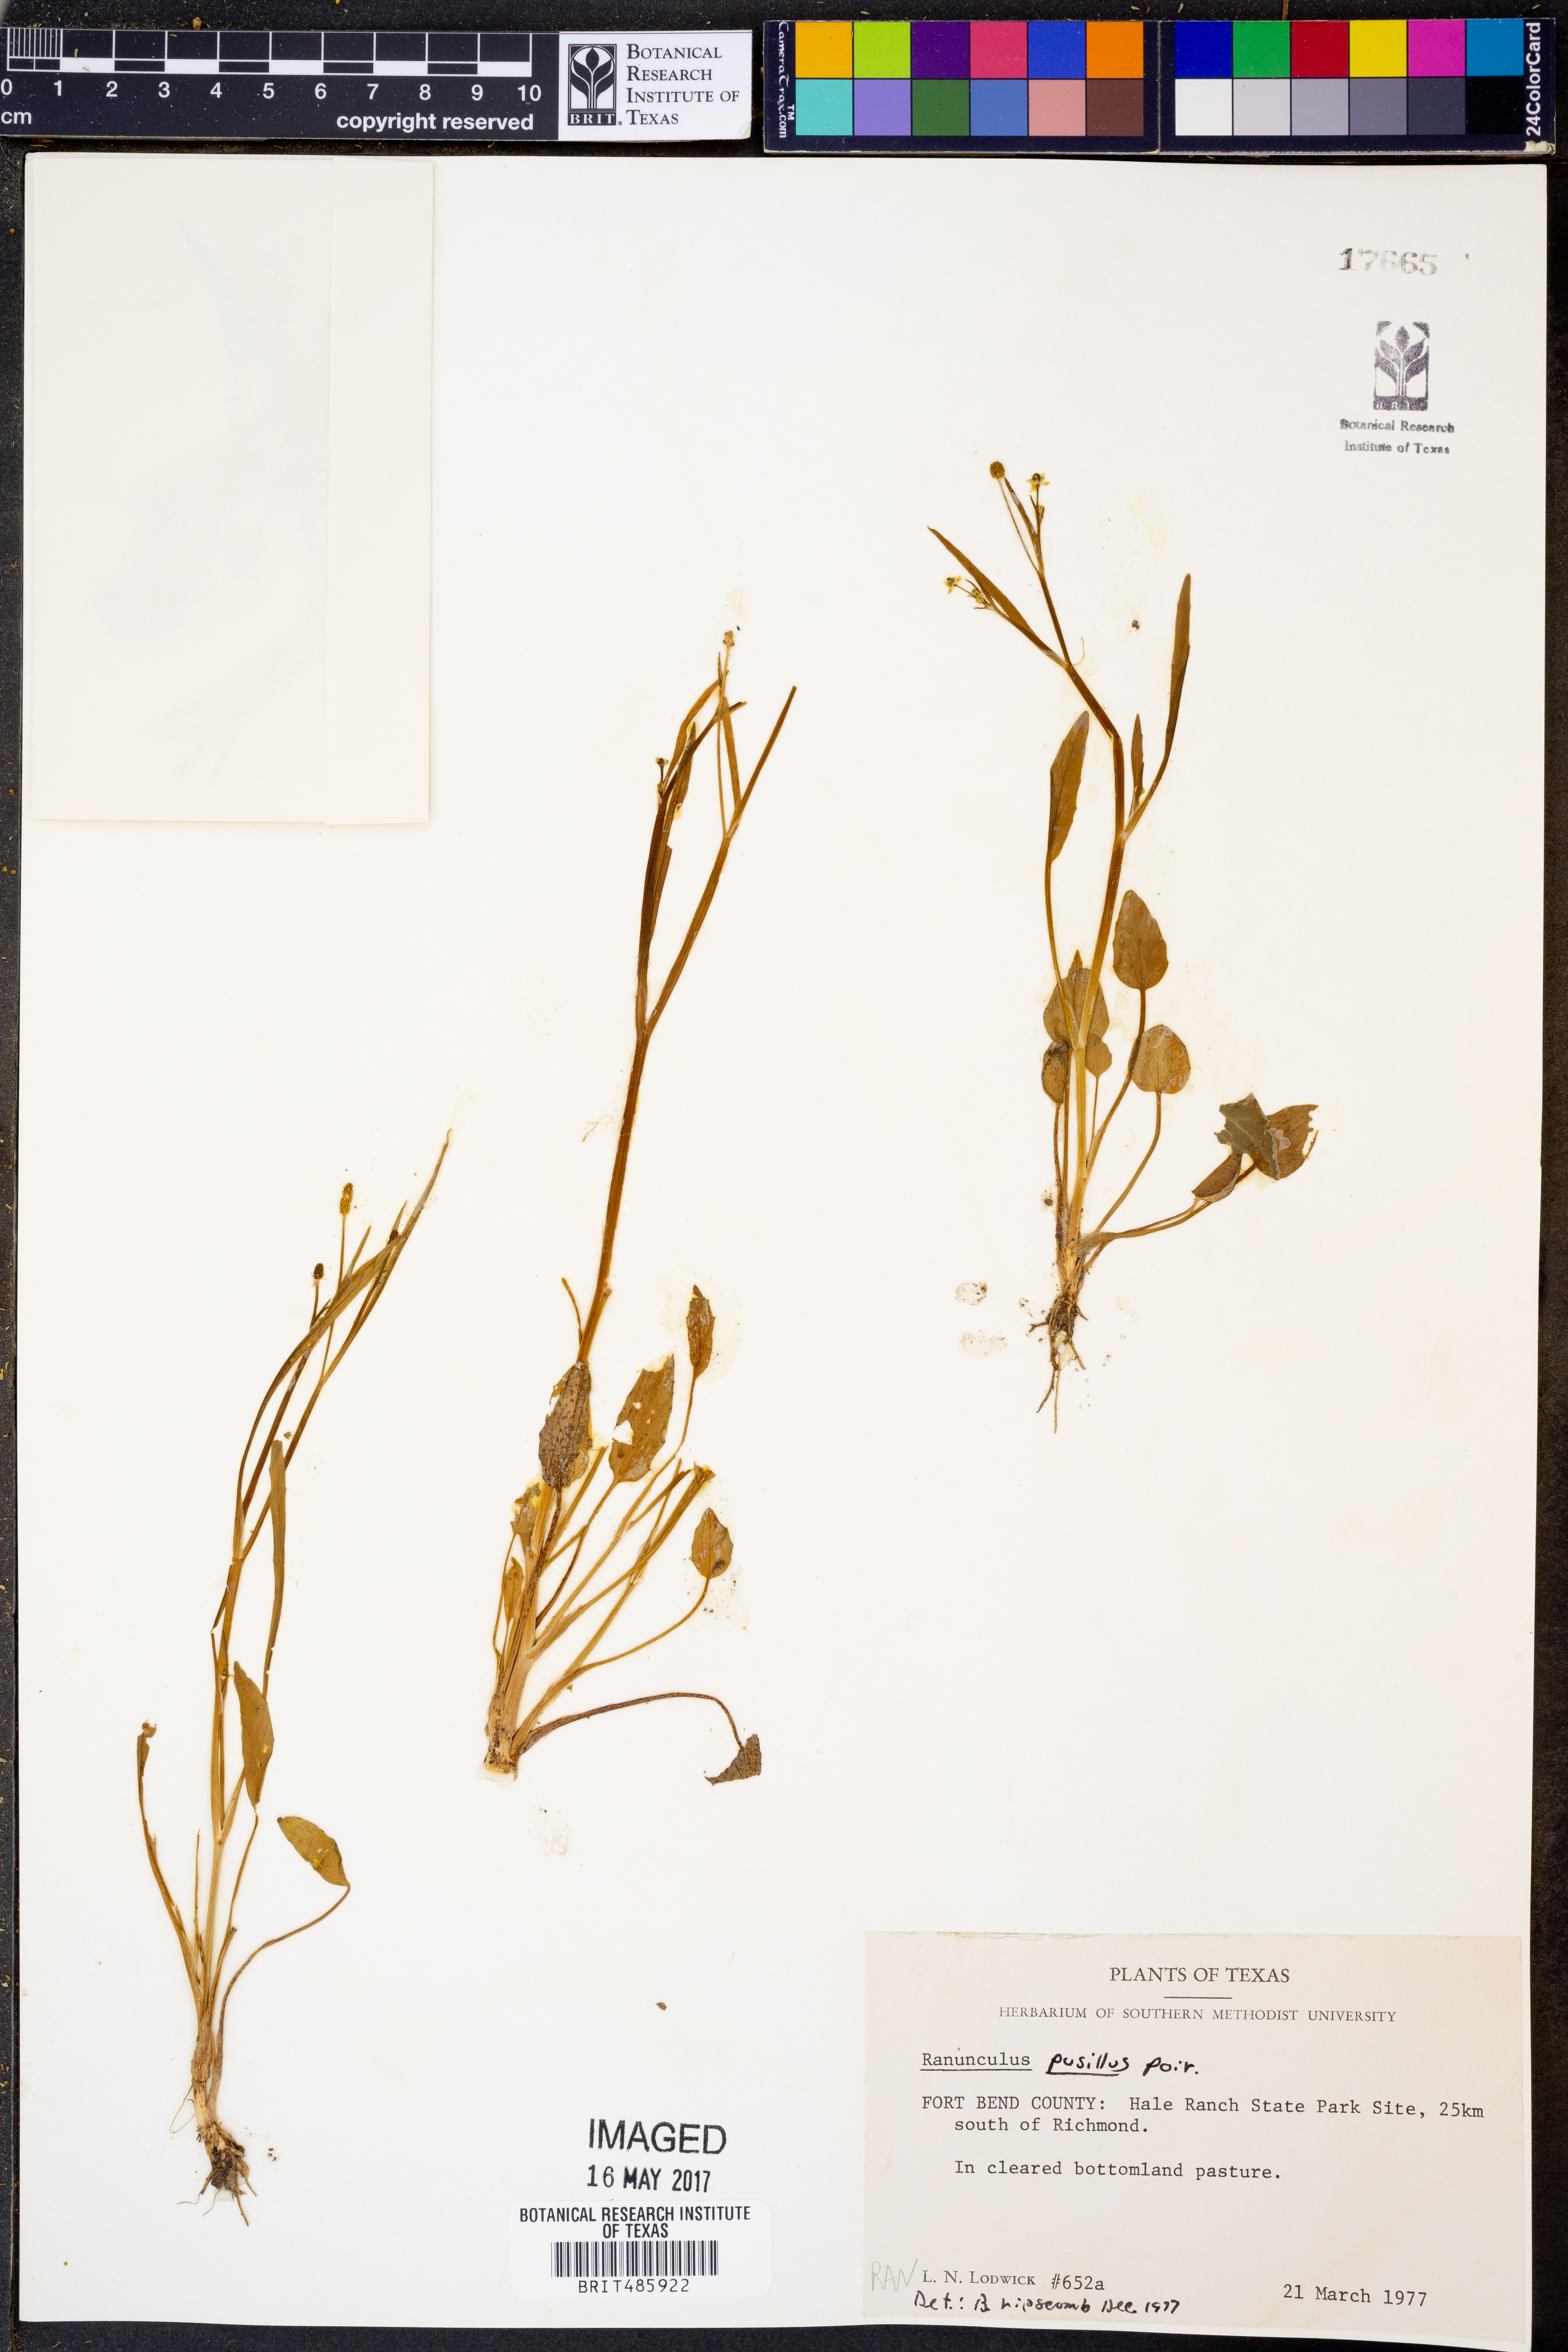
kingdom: Plantae
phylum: Tracheophyta
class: Magnoliopsida
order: Ranunculales
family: Ranunculaceae
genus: Ranunculus
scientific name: Ranunculus pusillus
